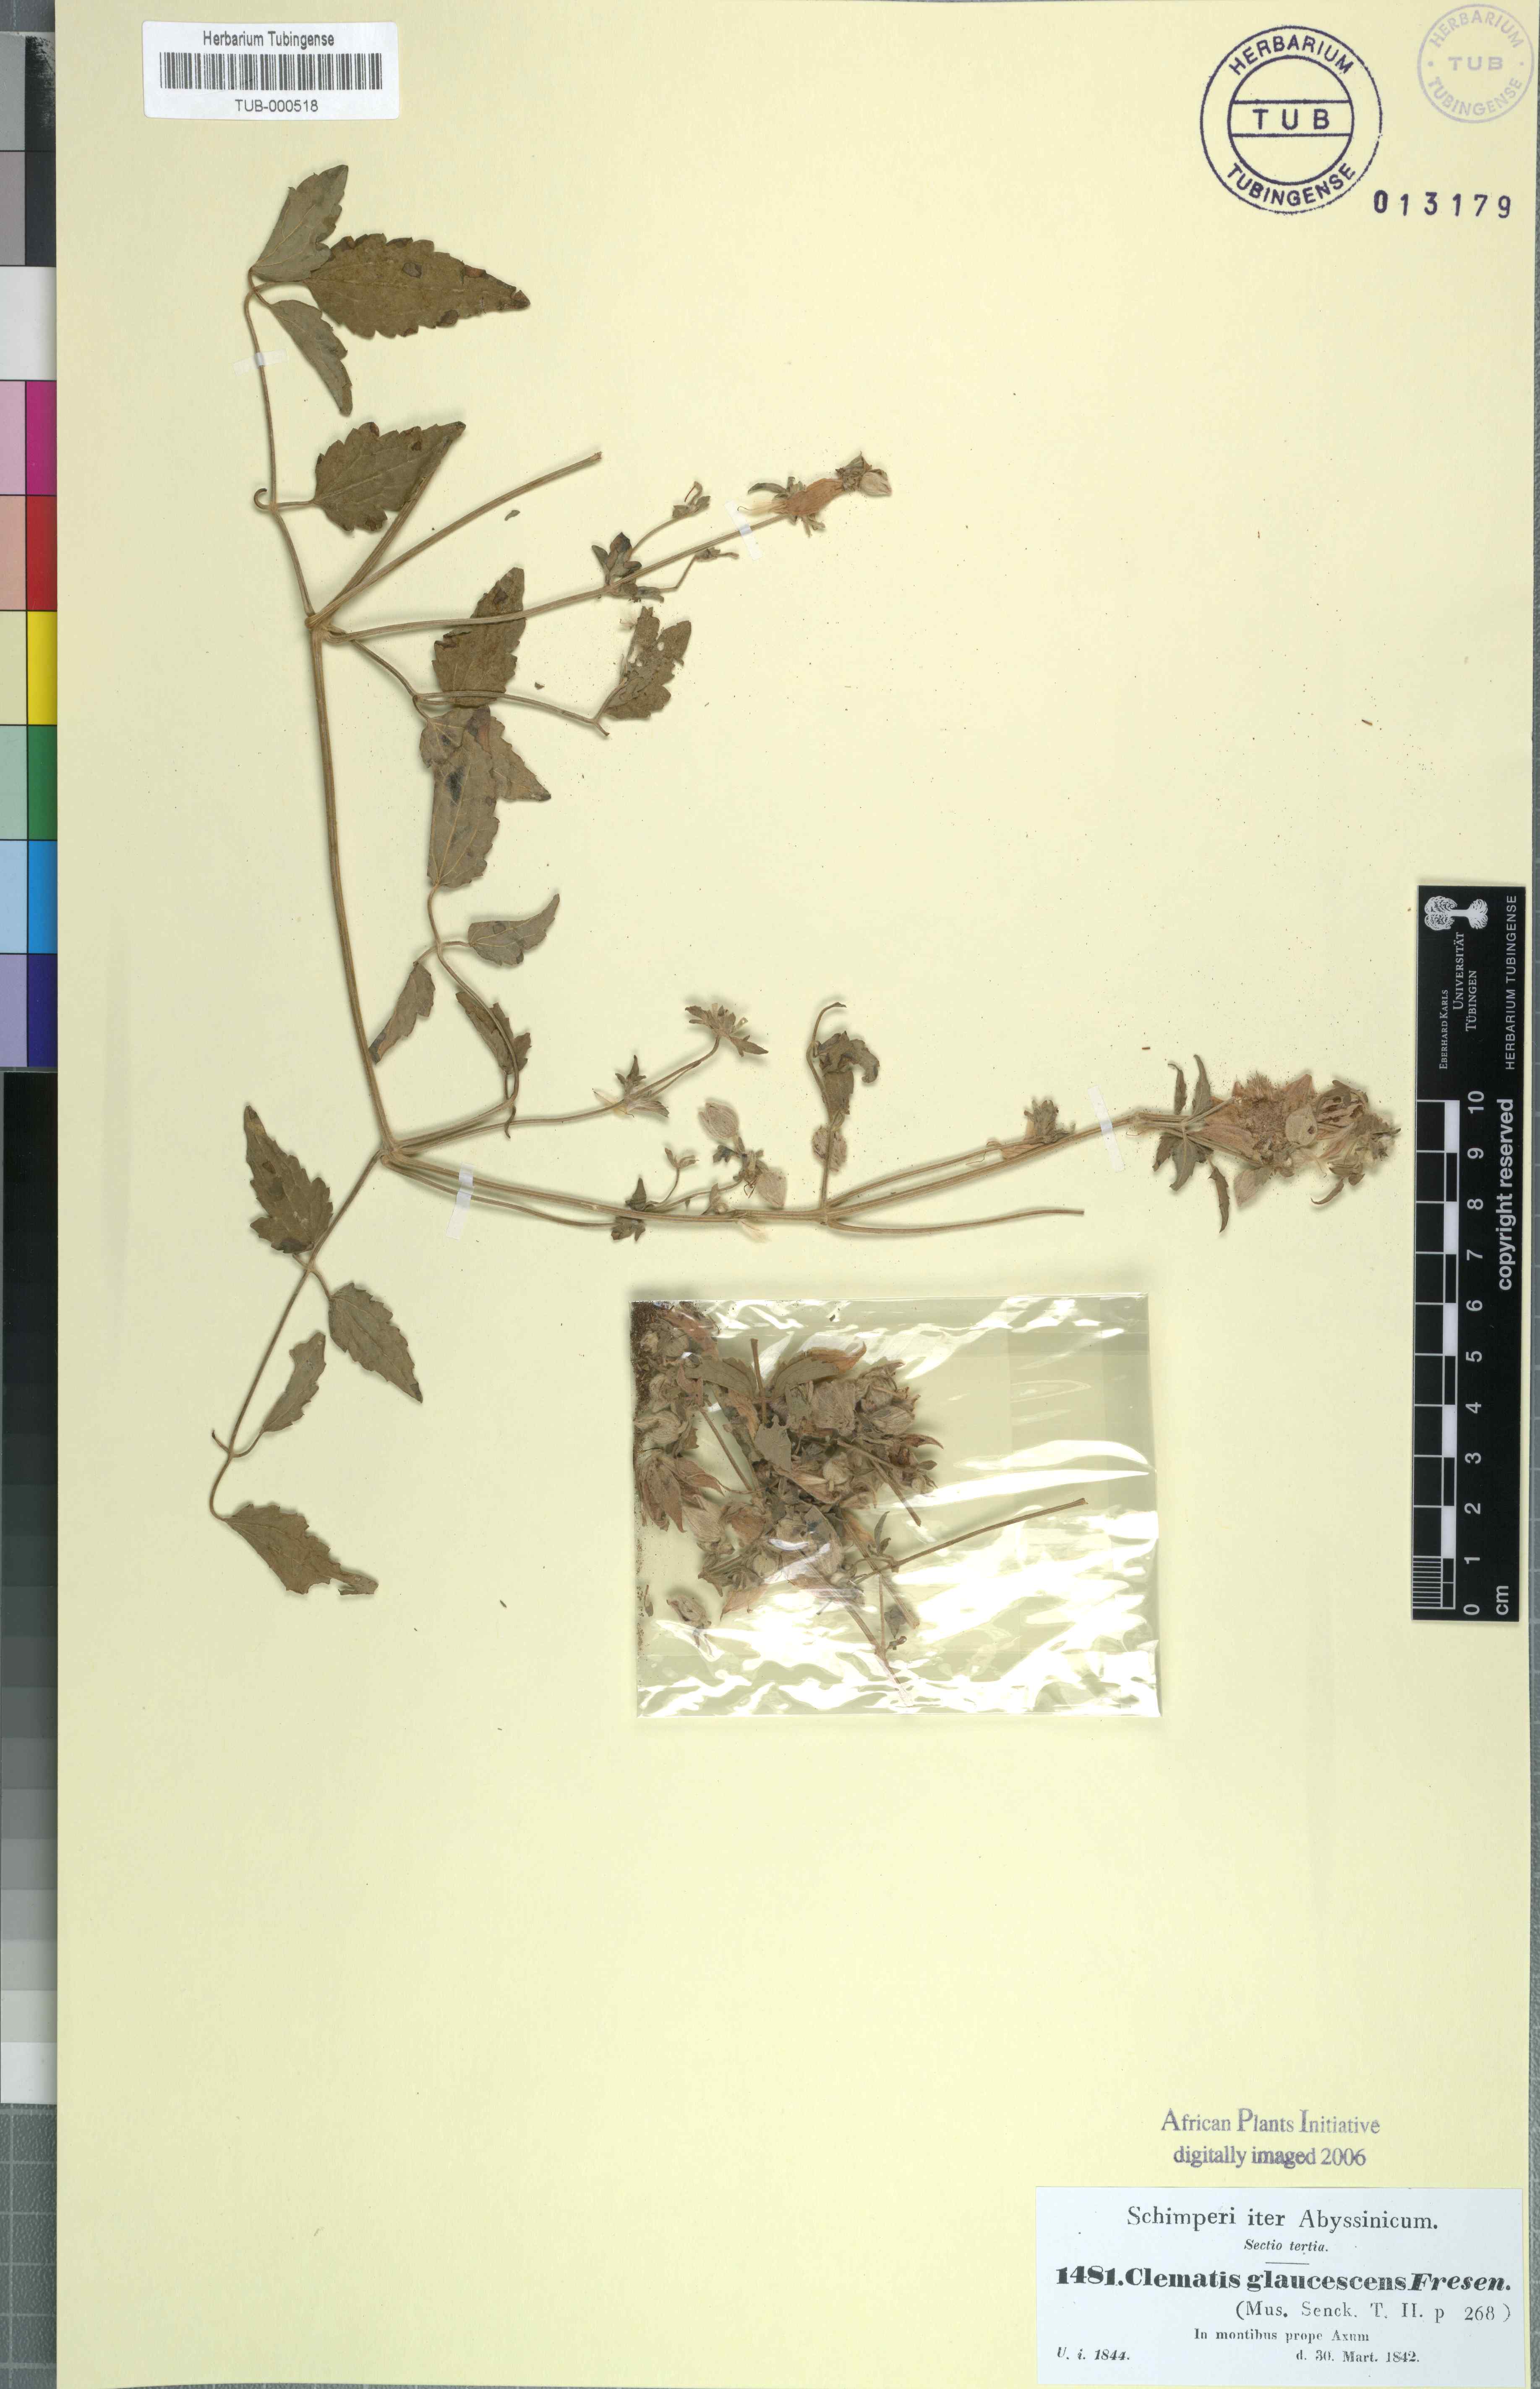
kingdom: Plantae
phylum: Tracheophyta
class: Magnoliopsida
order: Ranunculales
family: Ranunculaceae
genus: Clematis
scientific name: Clematis
